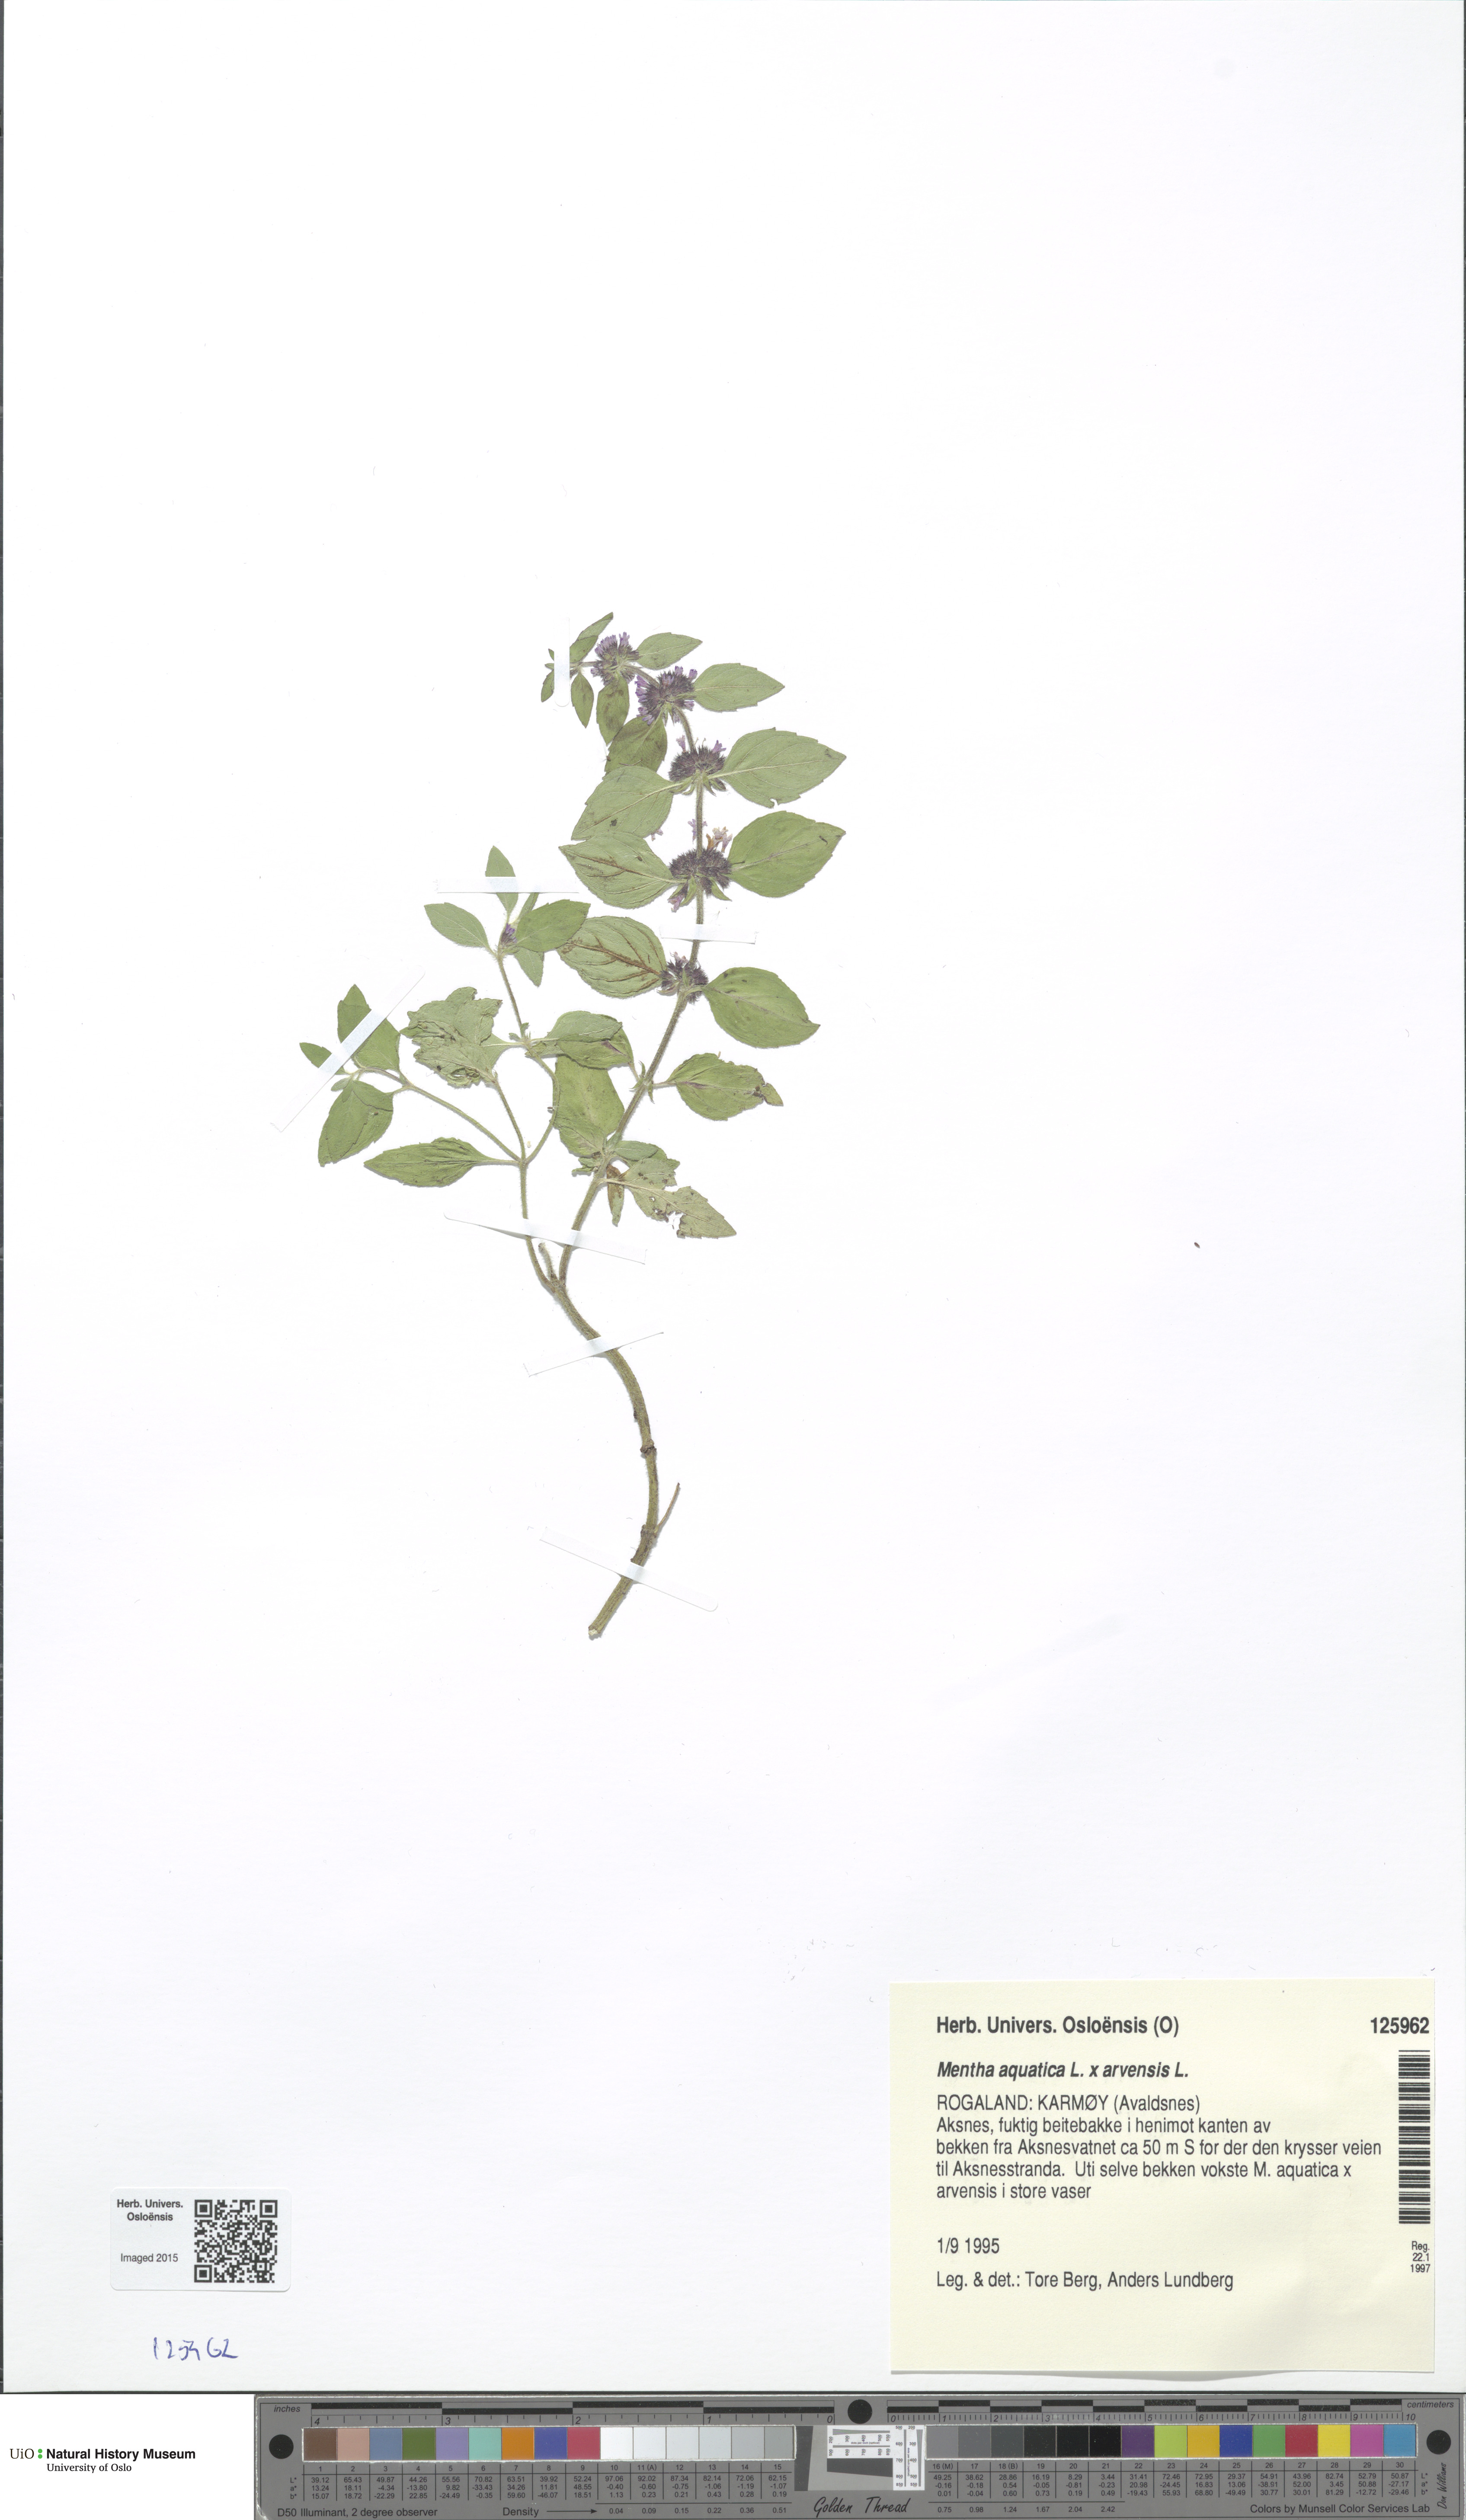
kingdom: Plantae
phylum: Tracheophyta
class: Magnoliopsida
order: Lamiales
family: Lamiaceae
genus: Mentha
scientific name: Mentha
